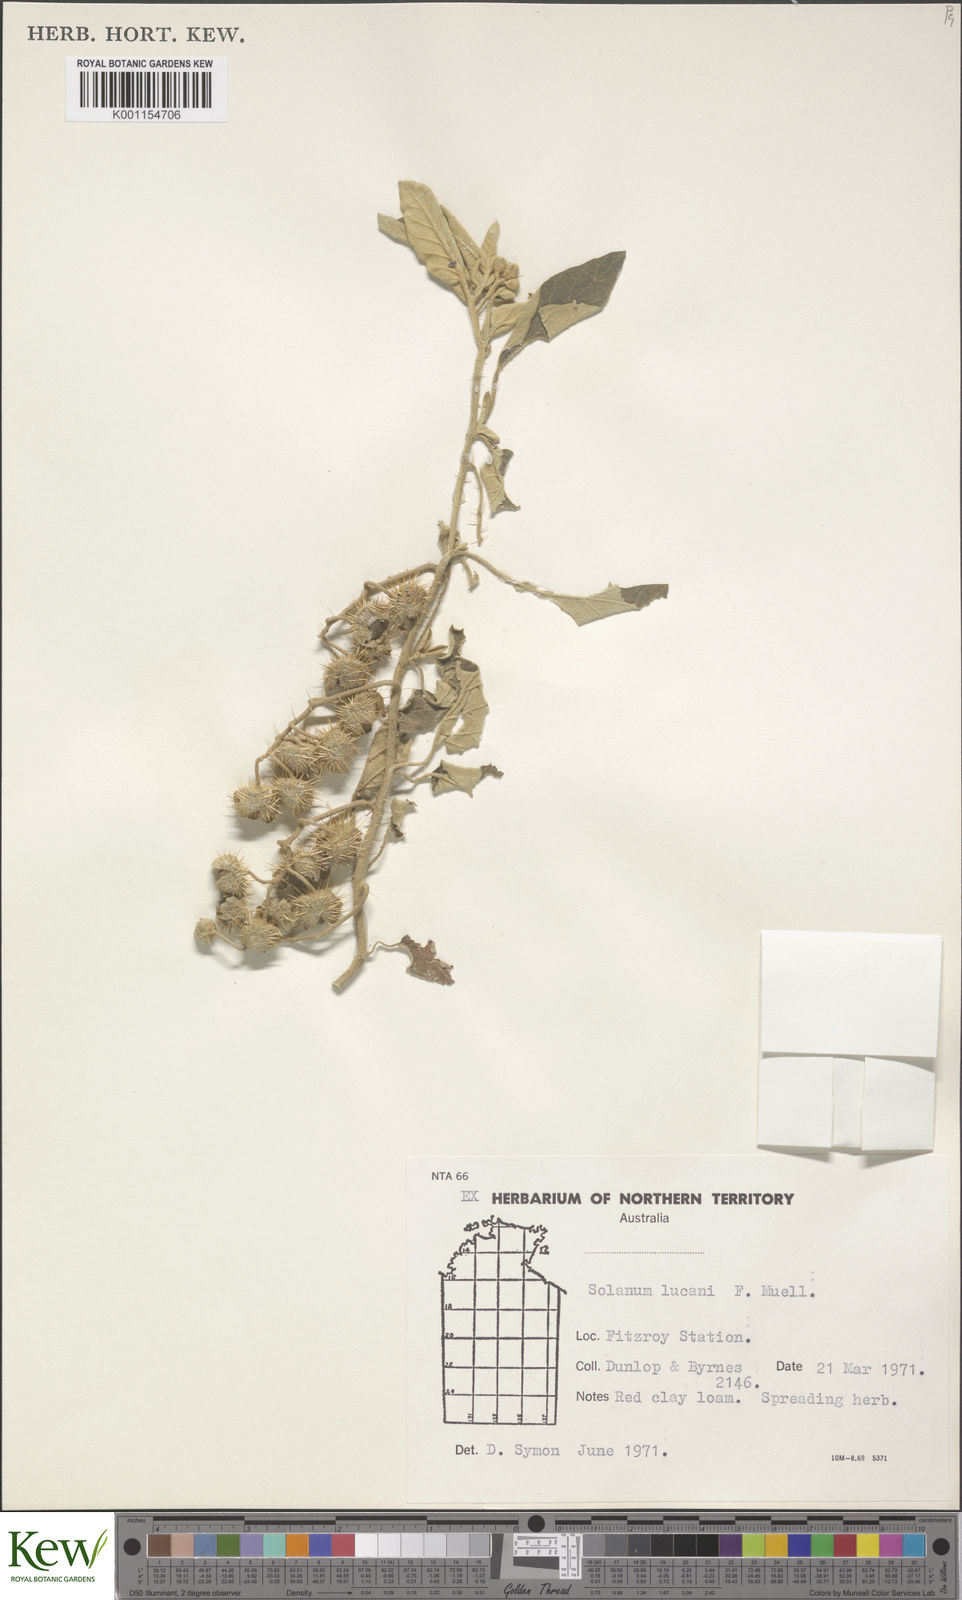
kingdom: Plantae
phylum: Tracheophyta
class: Magnoliopsida
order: Solanales
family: Solanaceae
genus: Solanum
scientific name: Solanum
